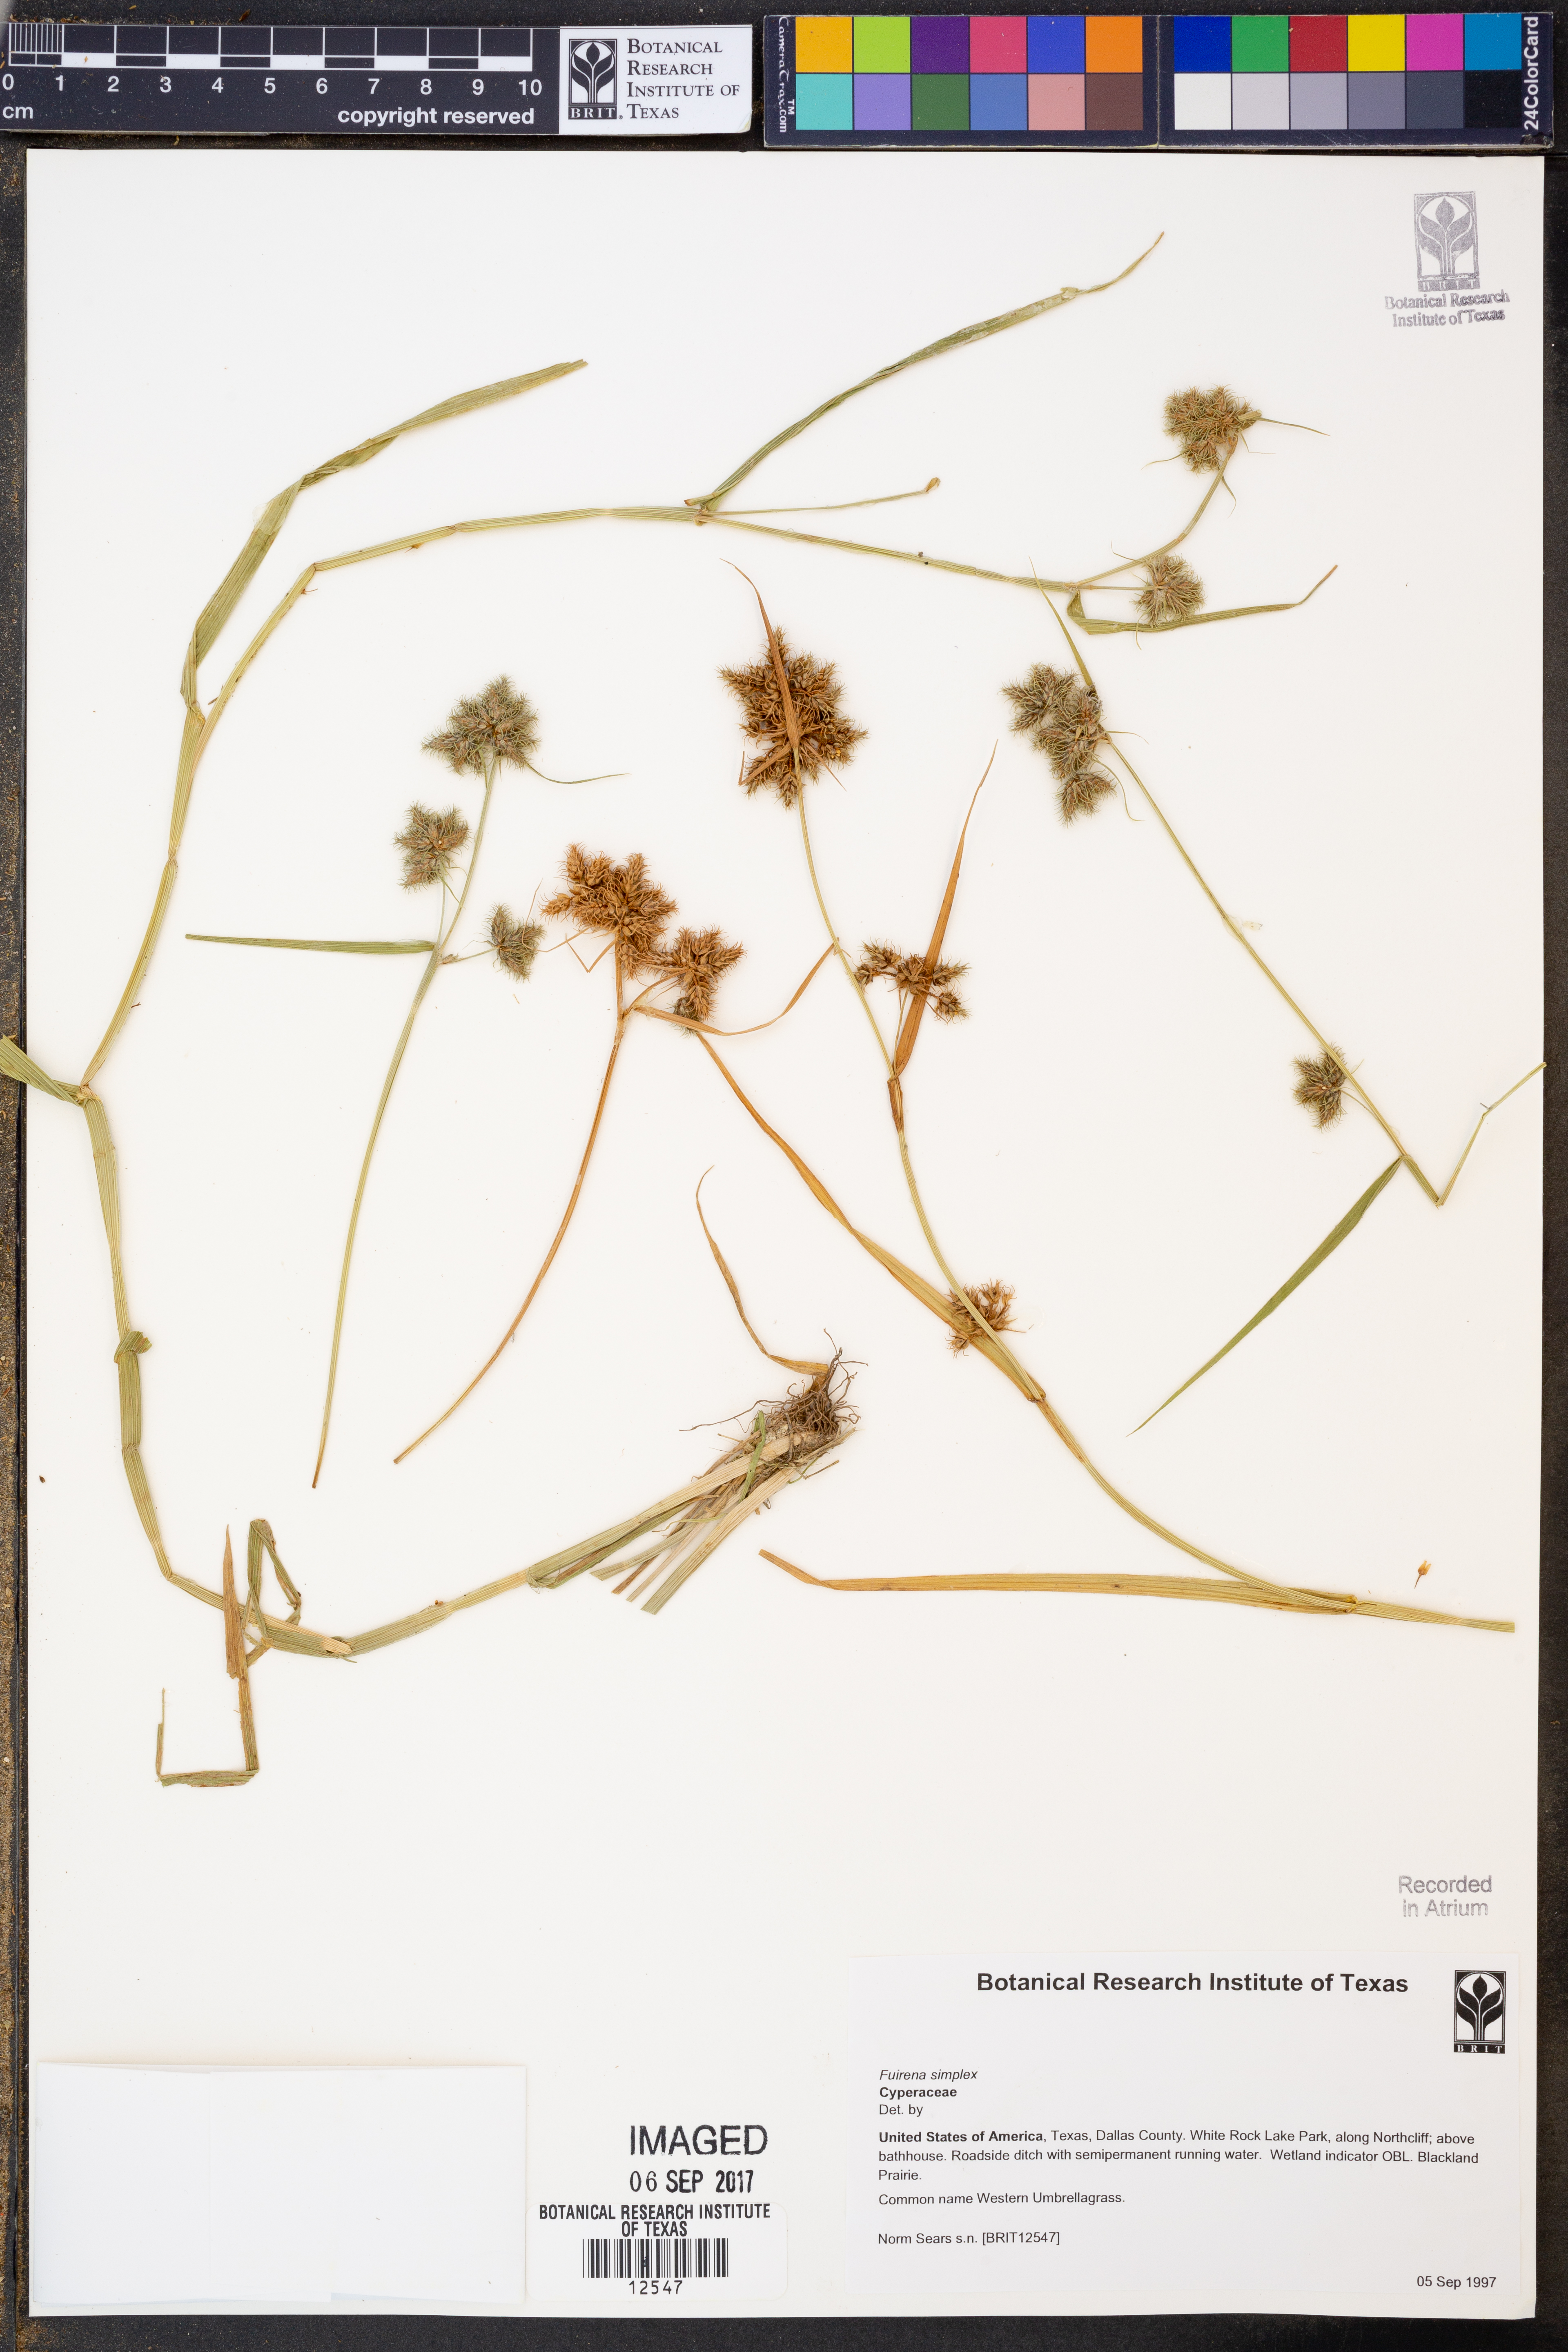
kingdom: Plantae
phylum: Tracheophyta
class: Liliopsida
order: Poales
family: Cyperaceae
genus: Fuirena
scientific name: Fuirena simplex
